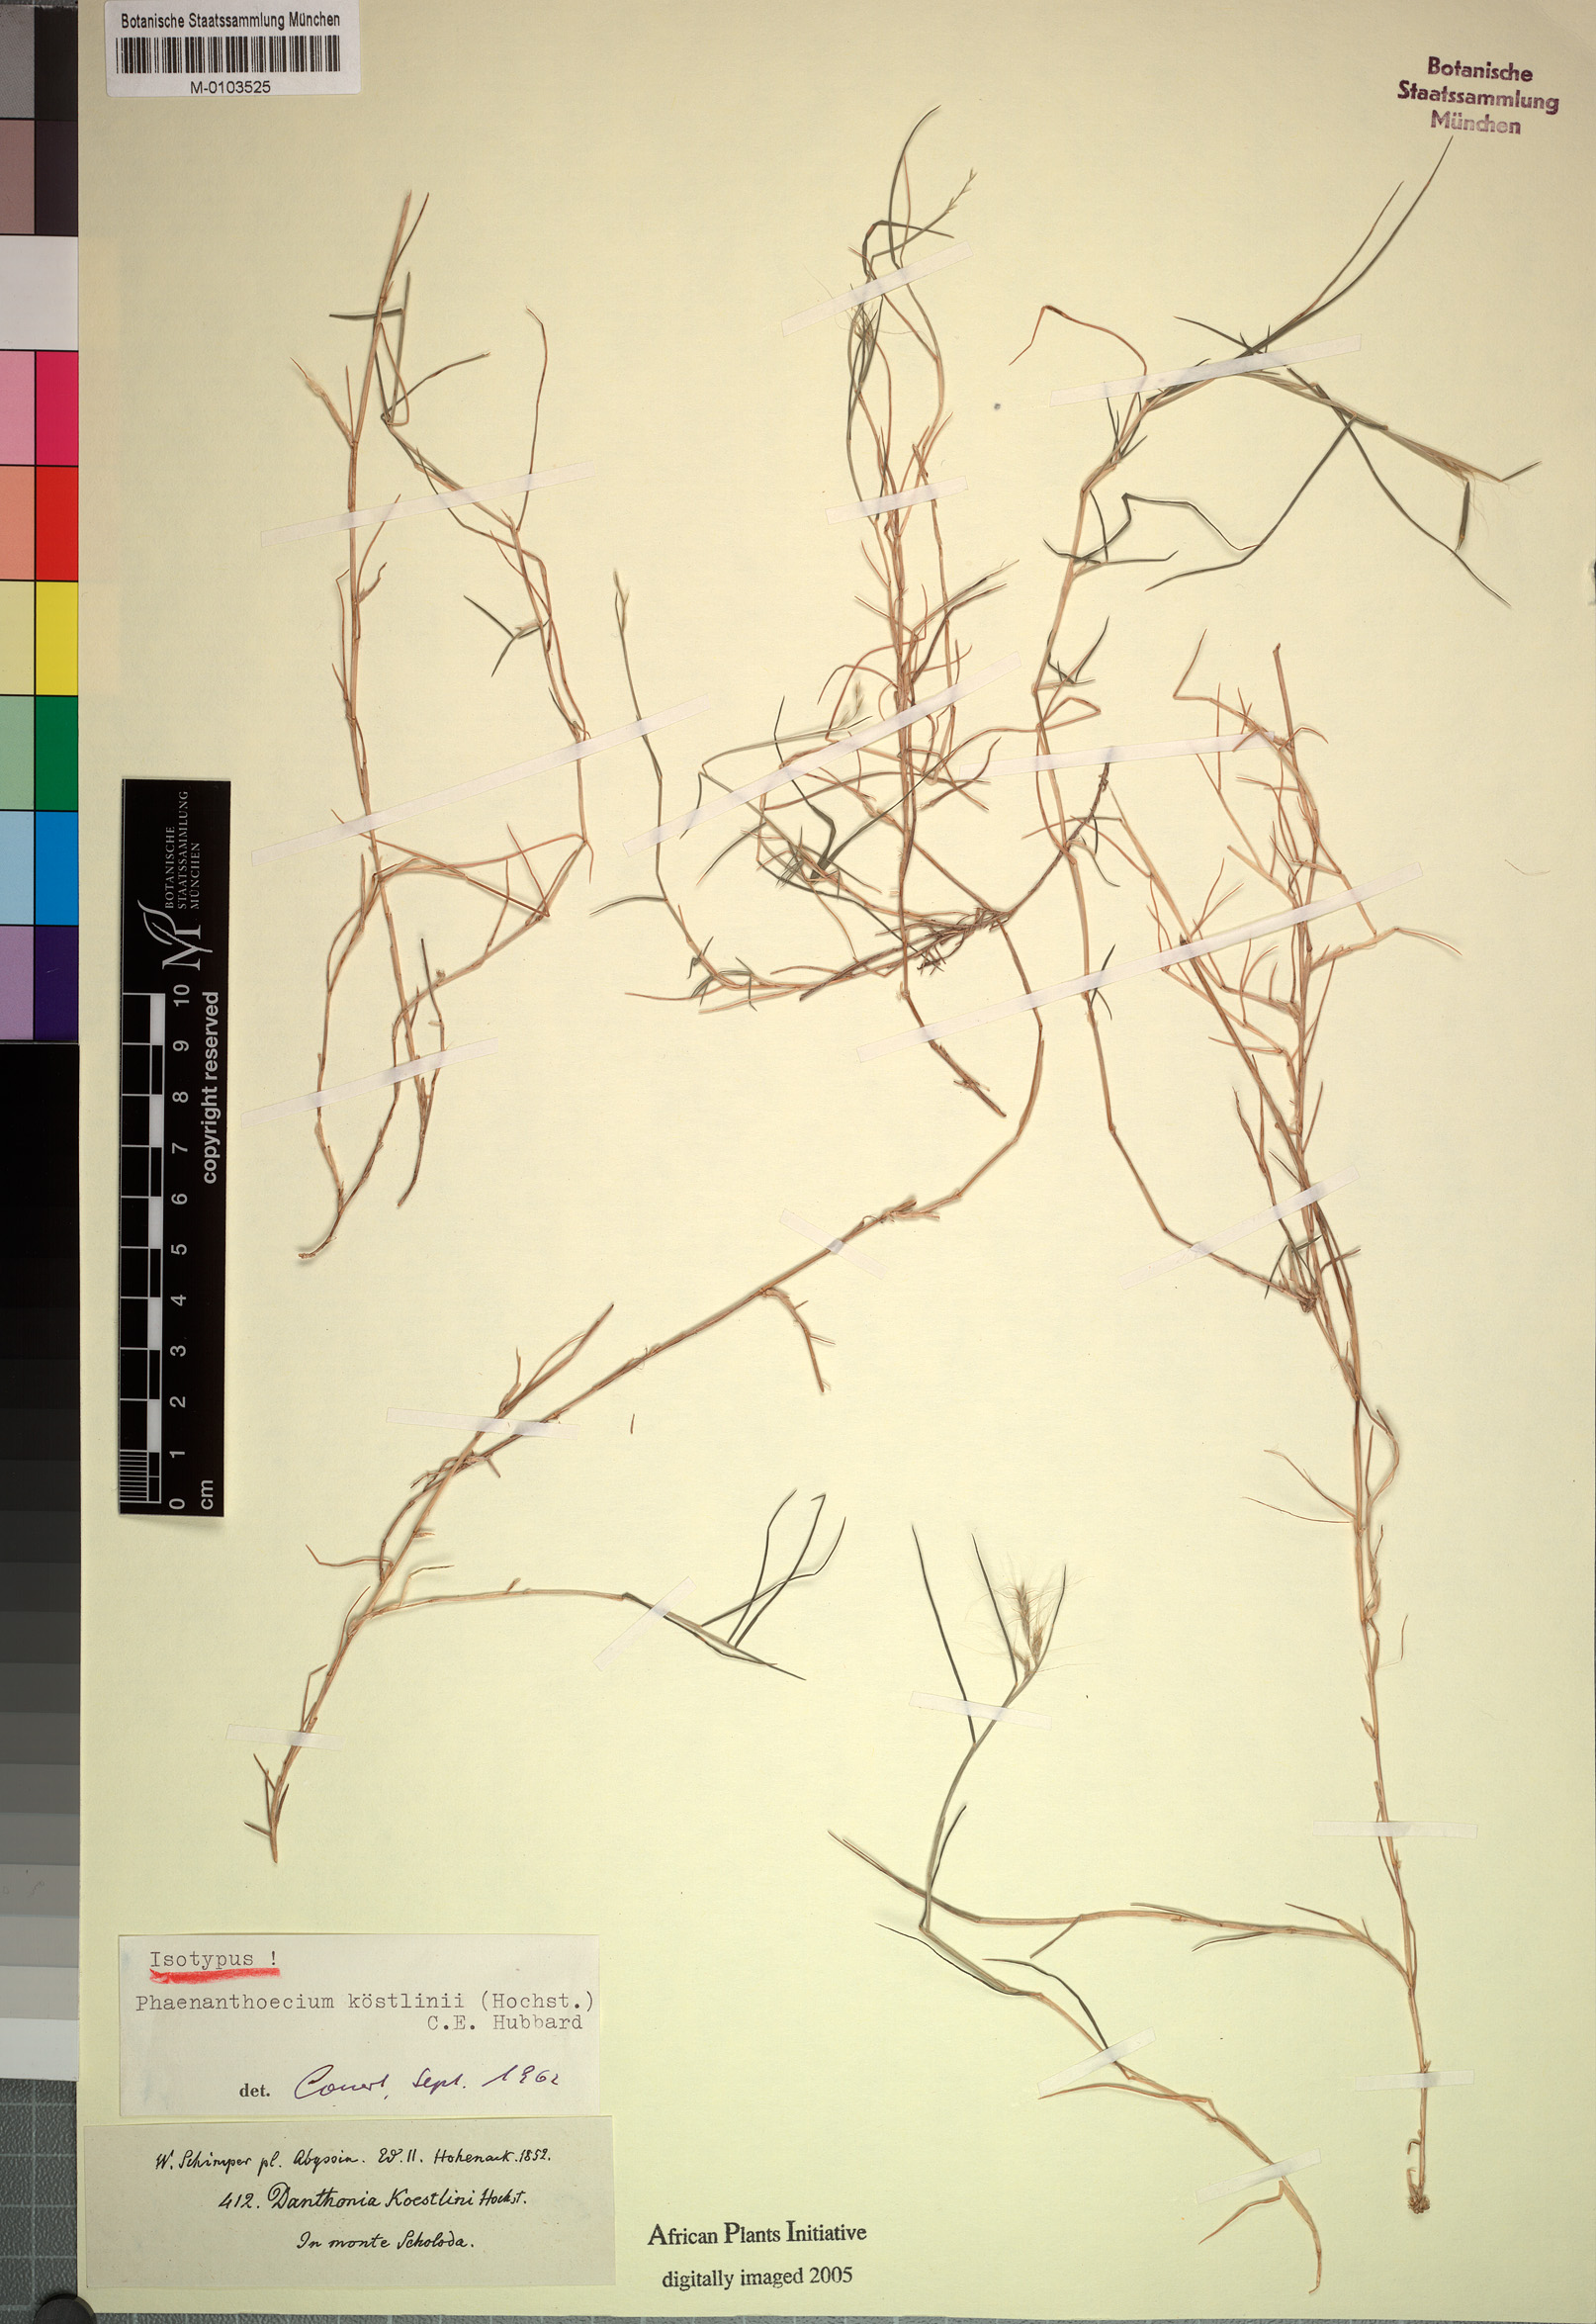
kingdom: Plantae
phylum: Tracheophyta
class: Liliopsida
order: Poales
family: Poaceae
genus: Phaenanthoecium
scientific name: Phaenanthoecium koestlinii
